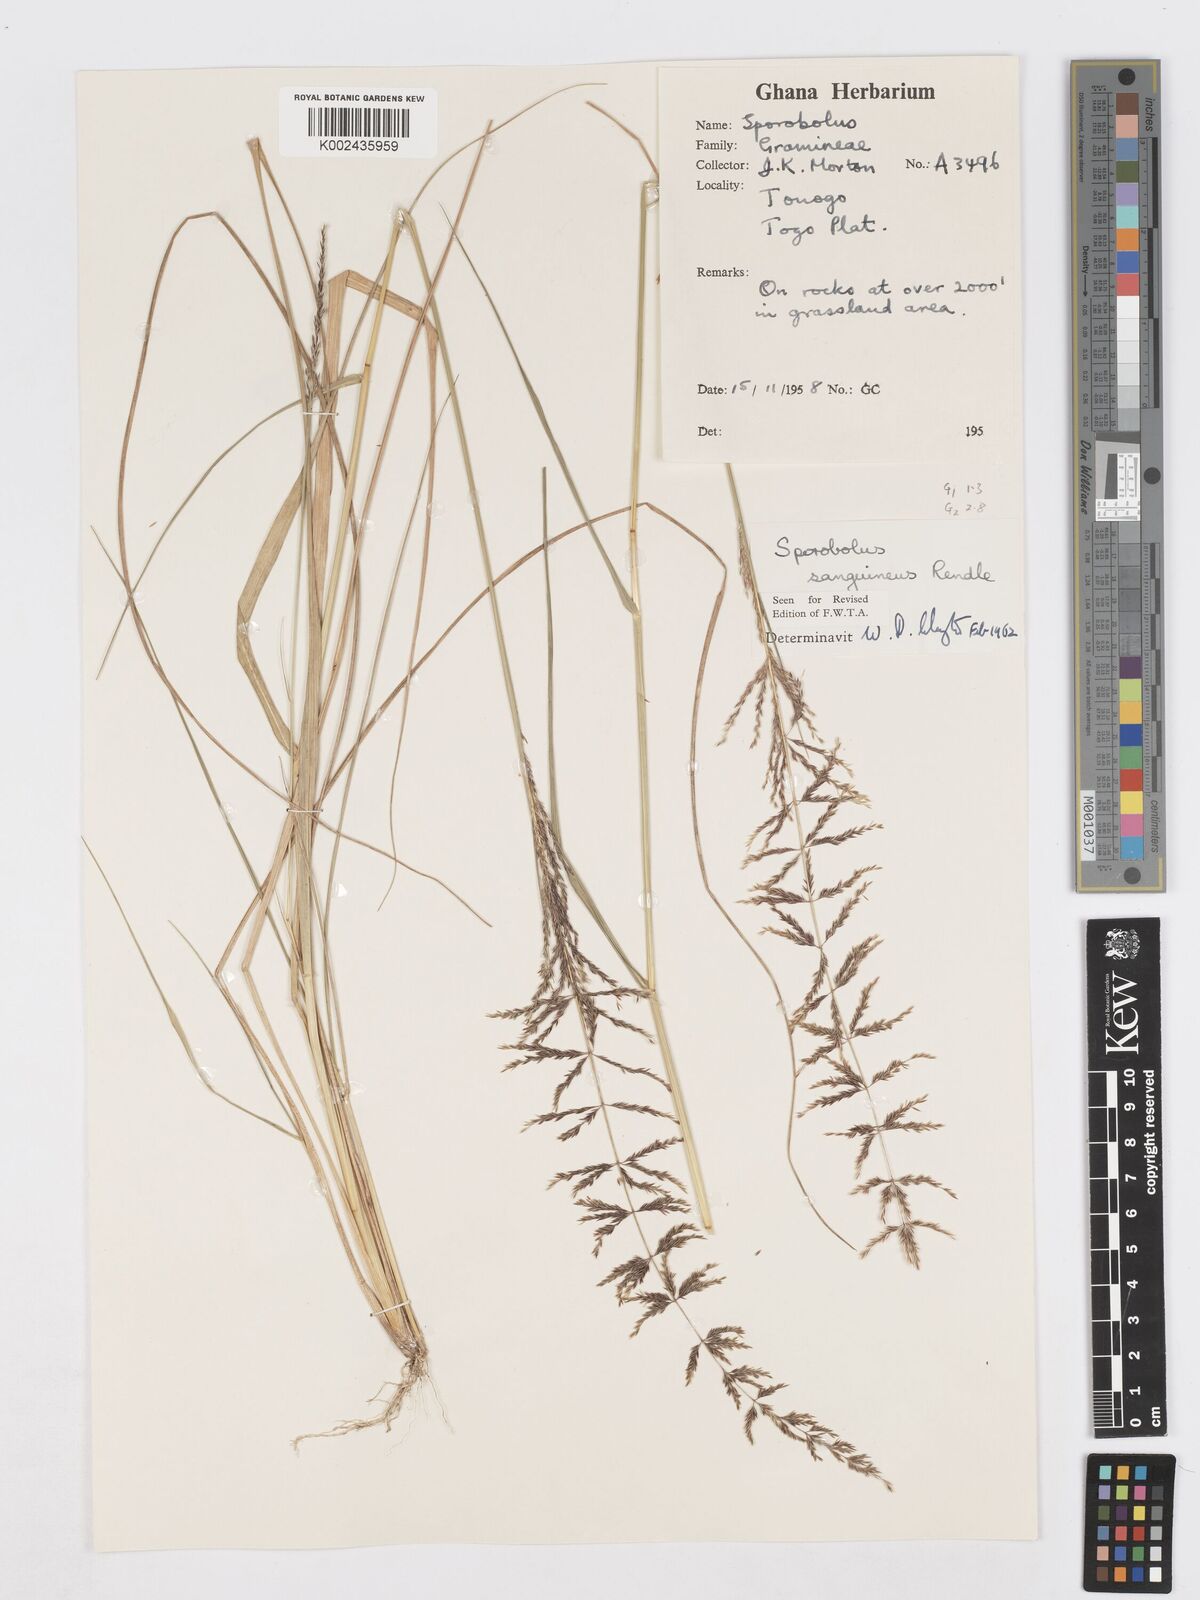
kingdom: Plantae
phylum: Tracheophyta
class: Liliopsida
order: Poales
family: Poaceae
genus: Sporobolus
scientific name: Sporobolus sanguineus
